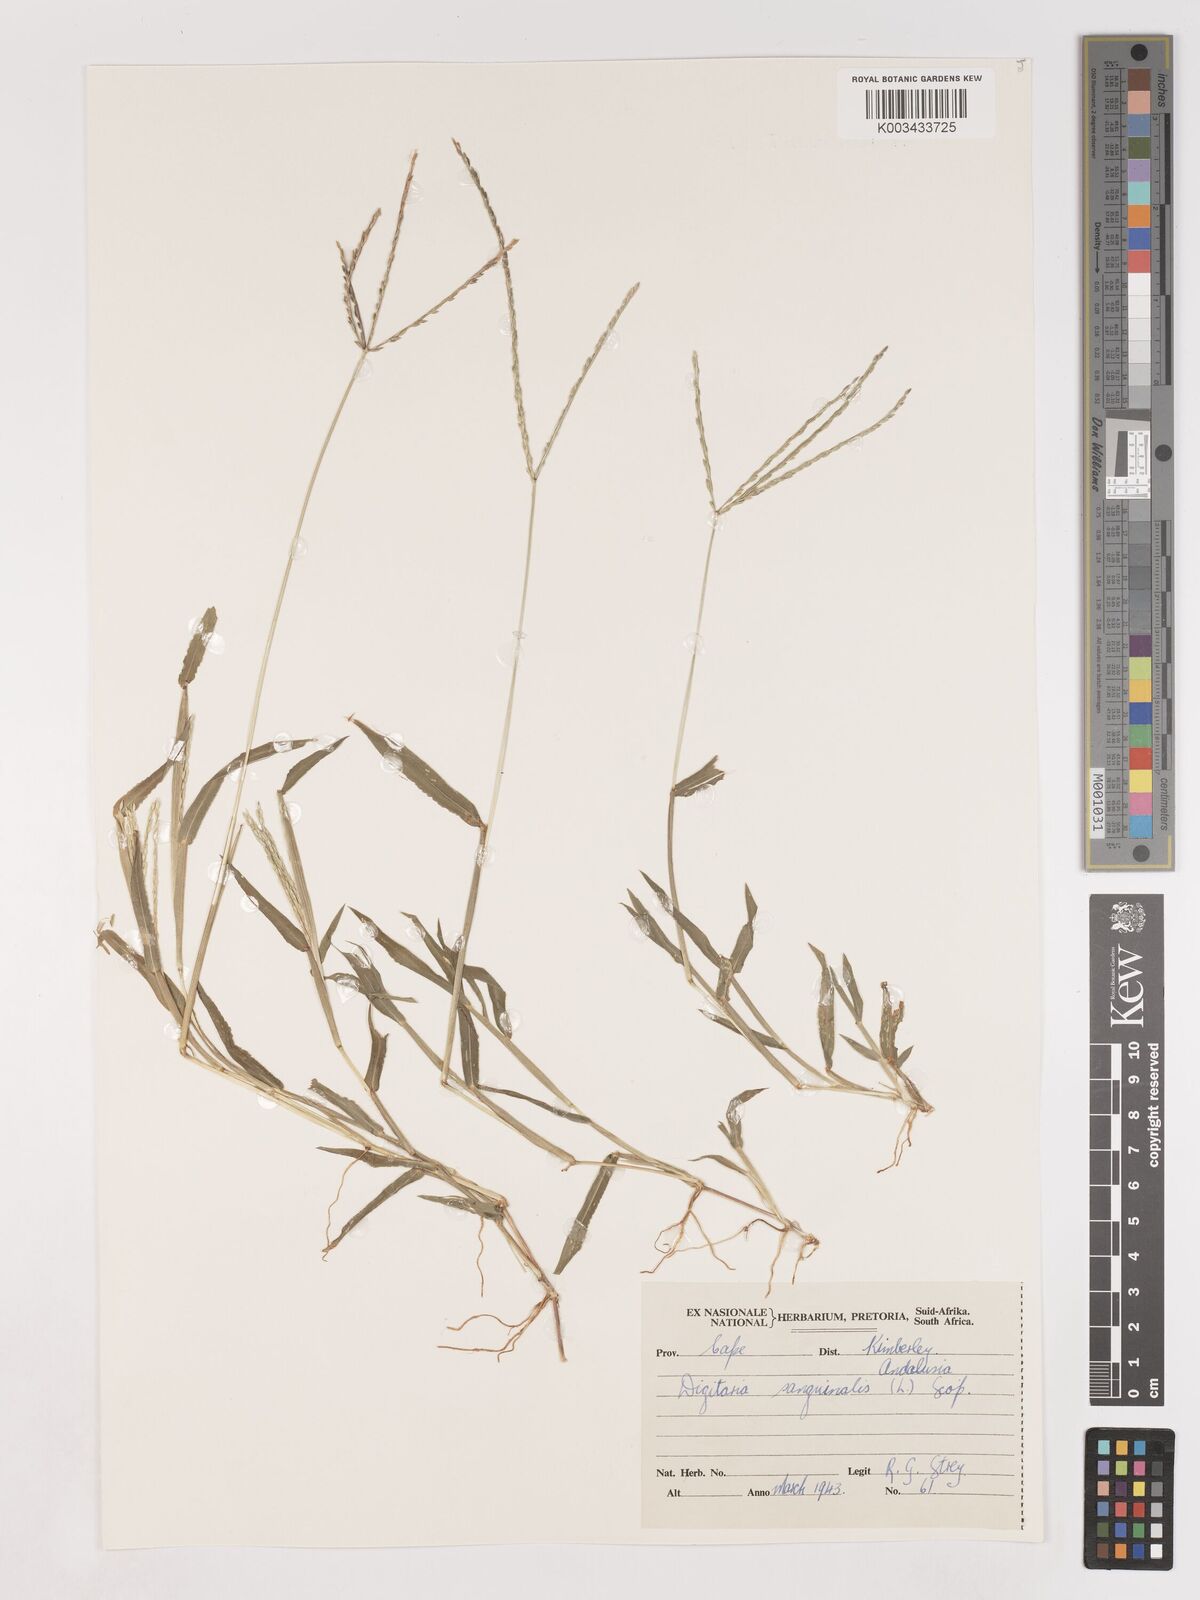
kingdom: Plantae
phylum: Tracheophyta
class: Liliopsida
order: Poales
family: Poaceae
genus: Digitaria
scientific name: Digitaria sanguinalis
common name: Hairy crabgrass
